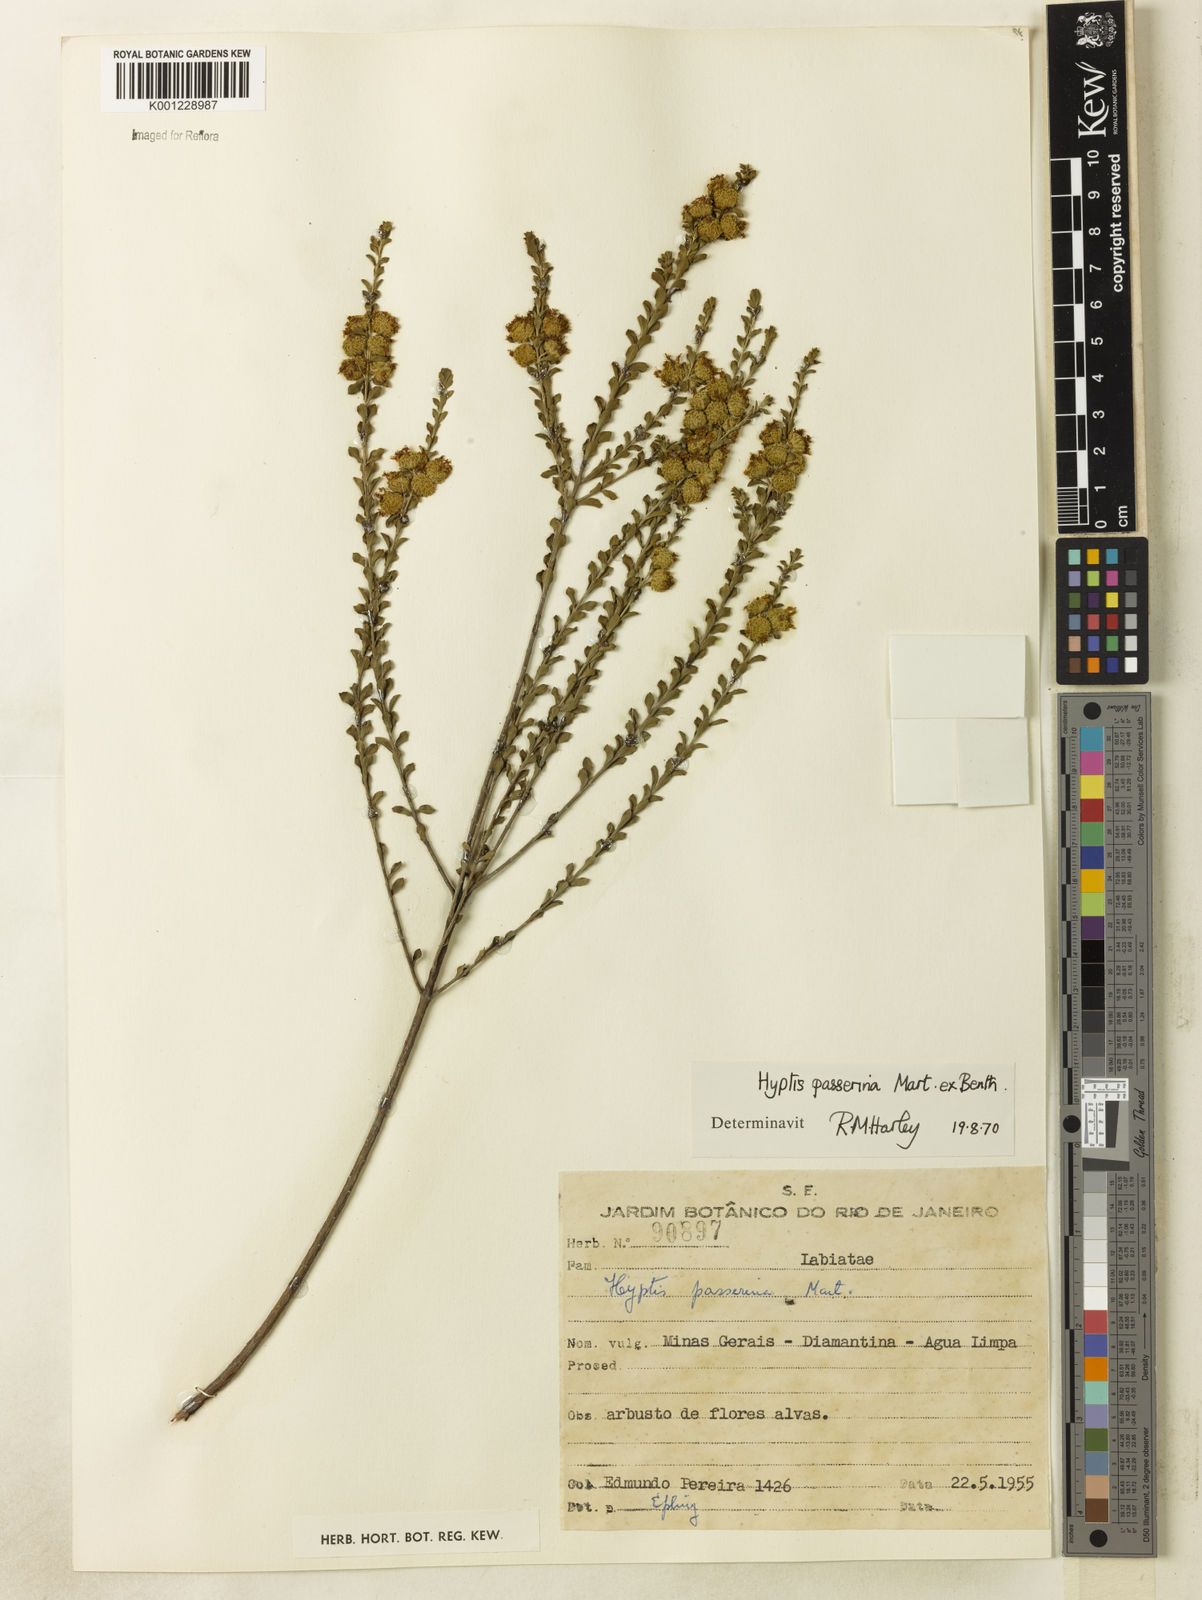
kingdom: Plantae
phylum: Tracheophyta
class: Magnoliopsida
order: Lamiales
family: Lamiaceae
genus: Hyptis
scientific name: Hyptis passerina
